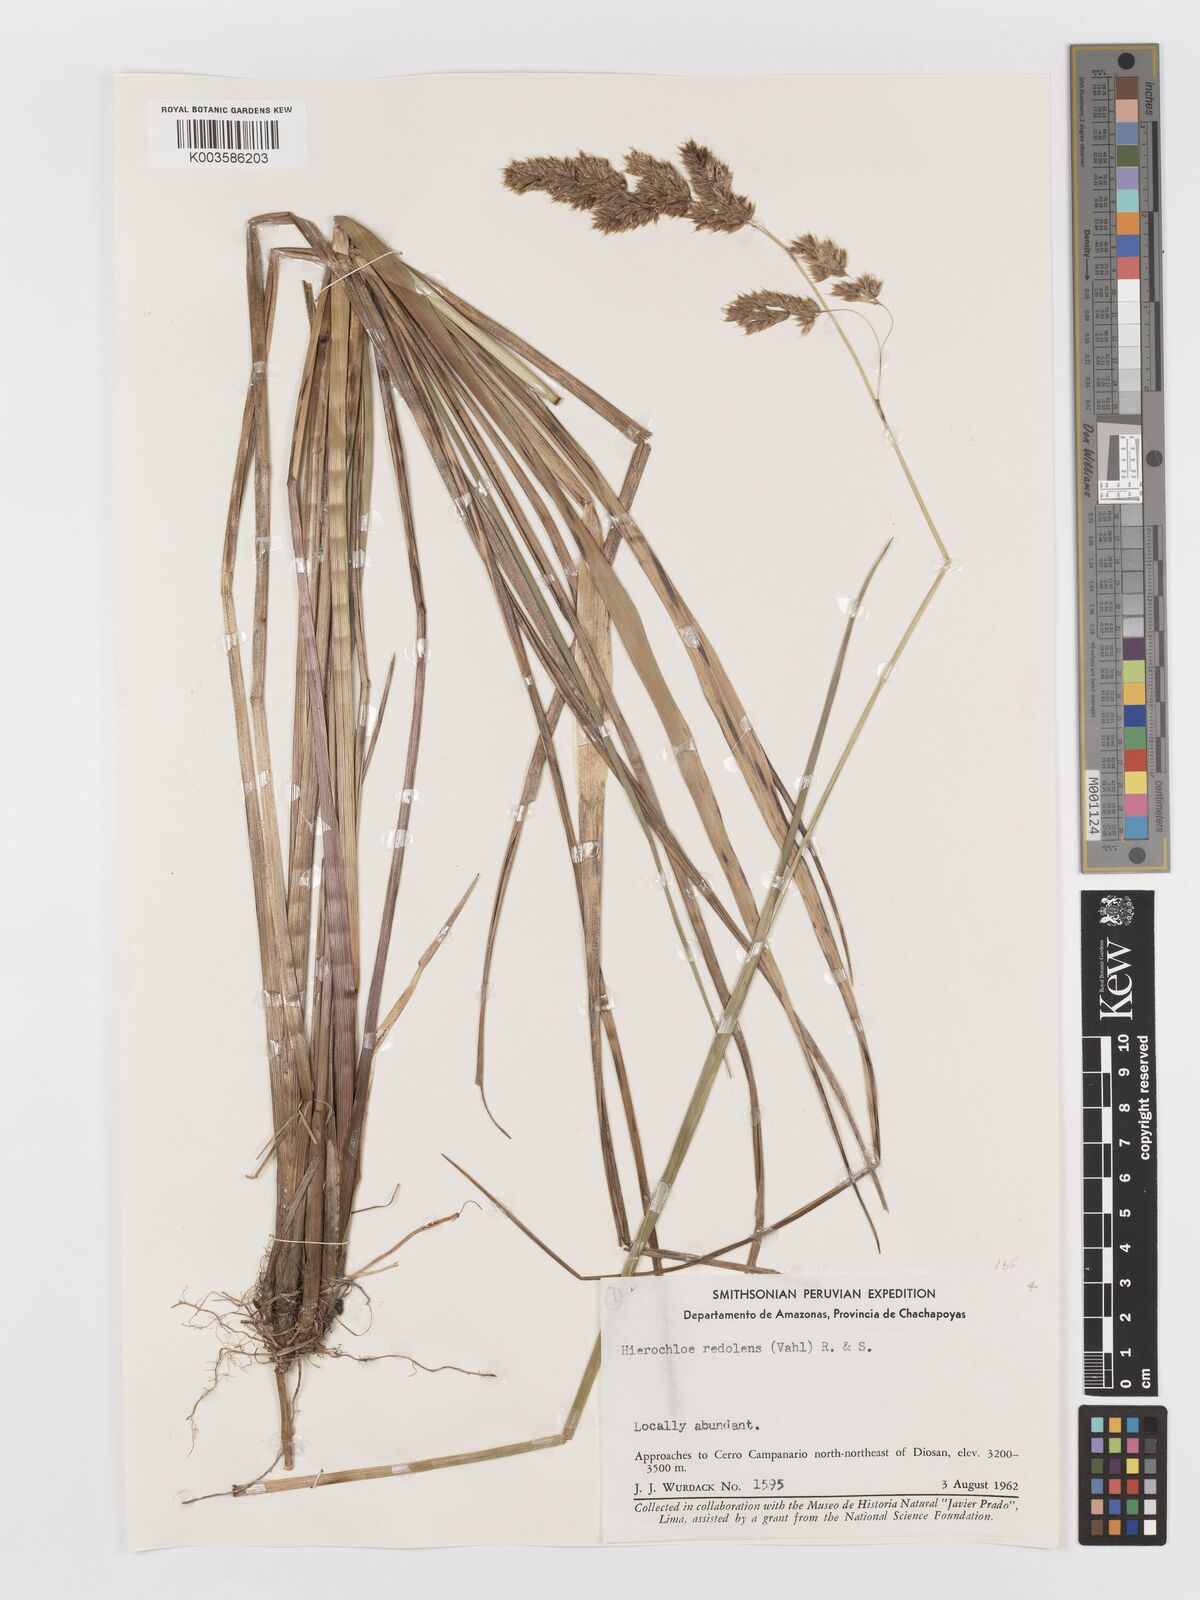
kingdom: Plantae
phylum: Tracheophyta
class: Liliopsida
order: Poales
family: Poaceae
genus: Anthoxanthum
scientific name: Anthoxanthum redolens
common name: Sweet holy grass
